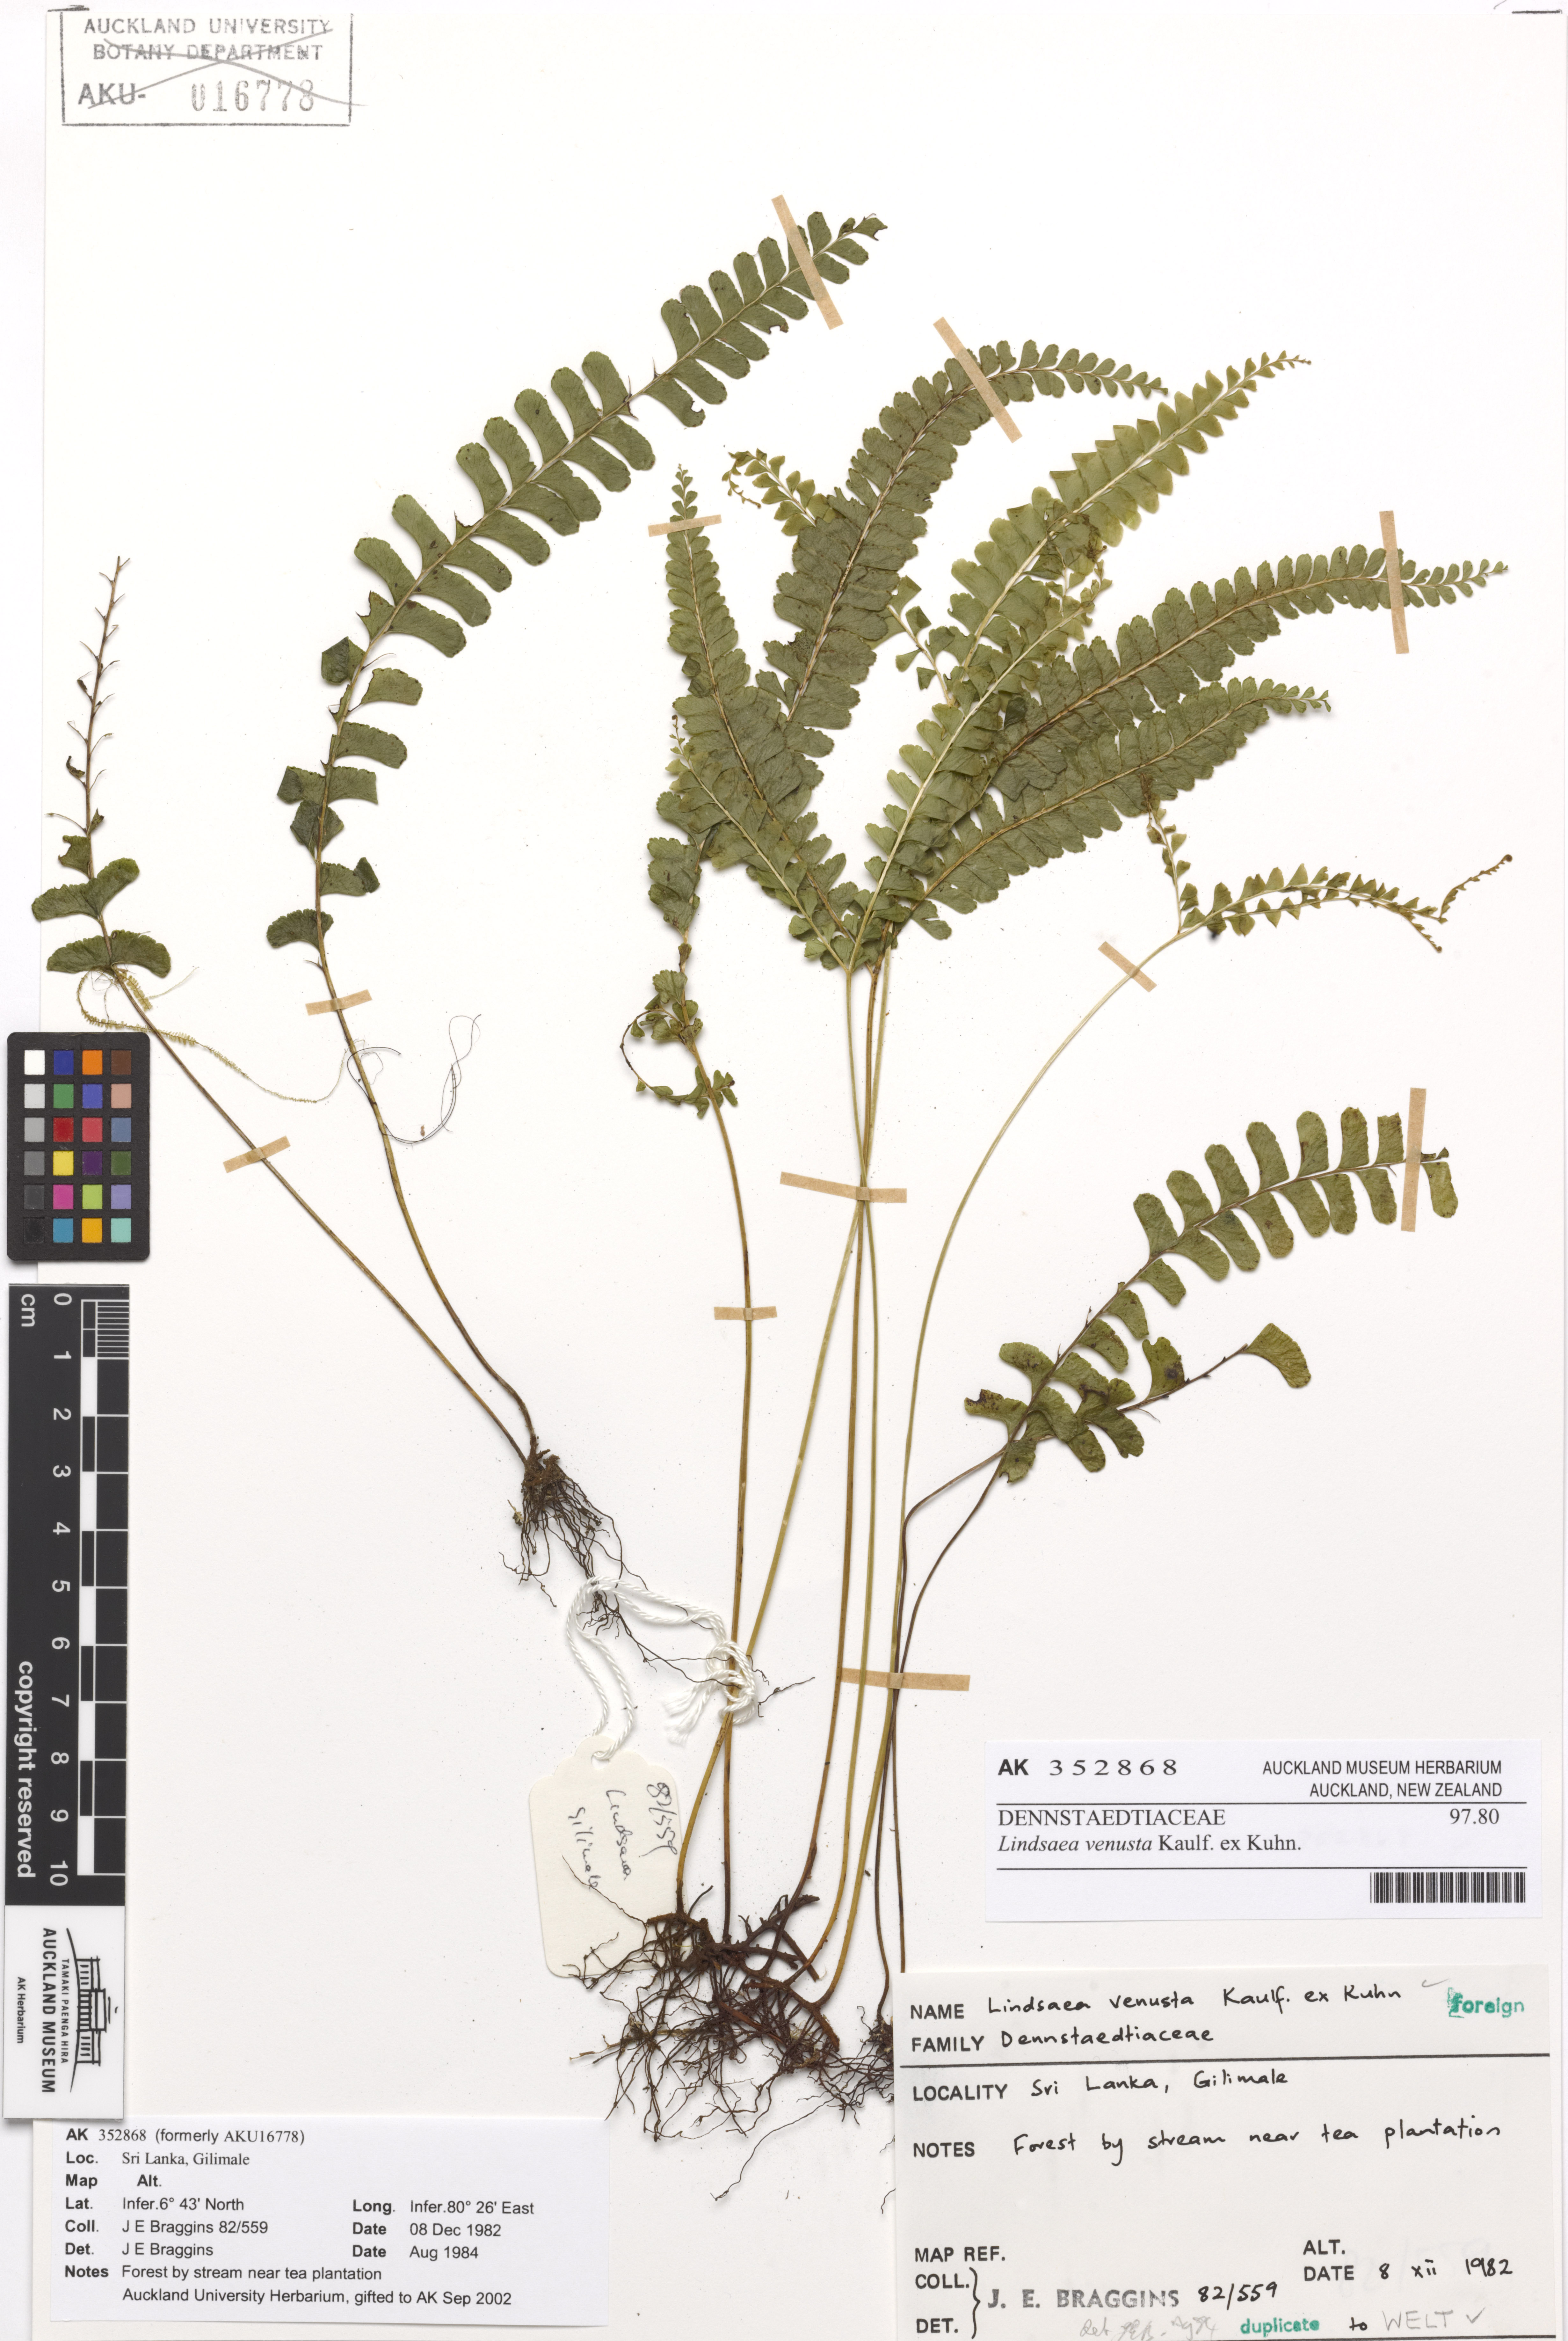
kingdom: Plantae
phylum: Tracheophyta
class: Polypodiopsida
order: Polypodiales
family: Lindsaeaceae
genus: Lindsaea
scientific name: Lindsaea venusta
